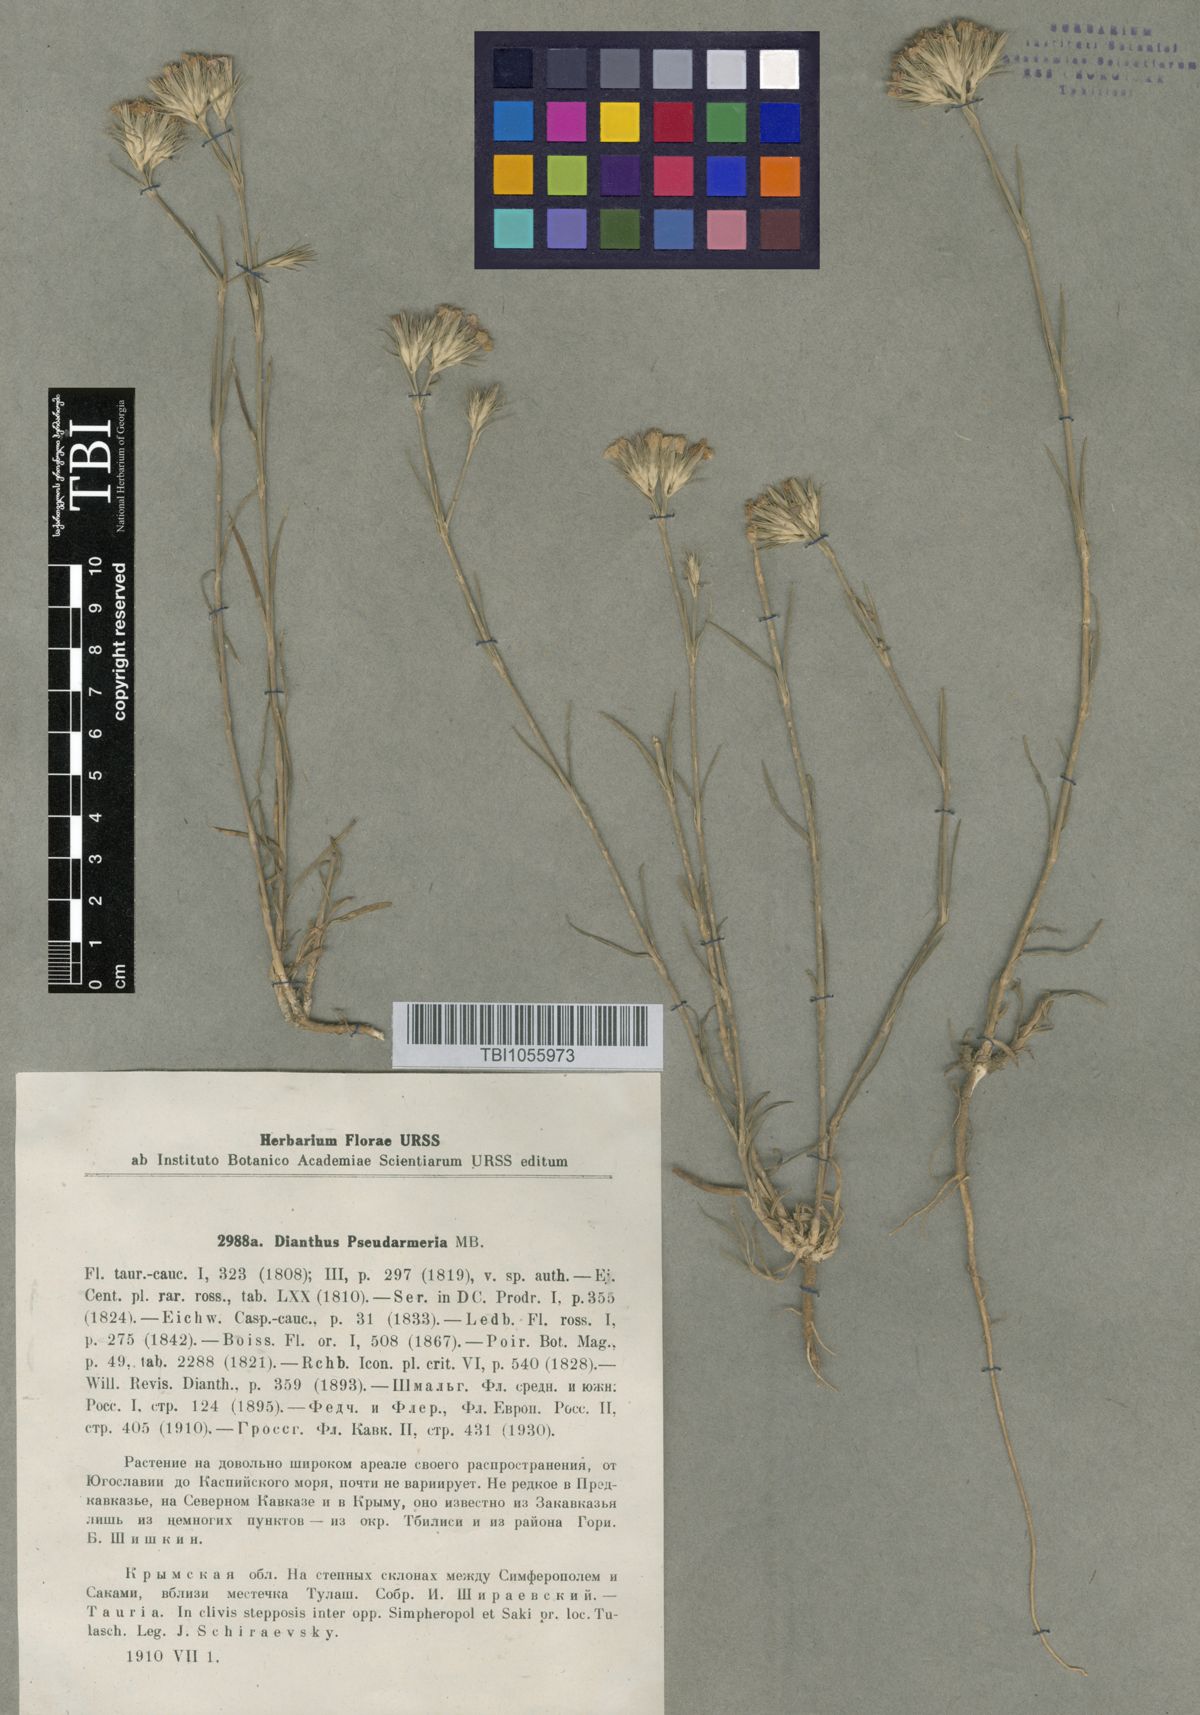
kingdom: Plantae
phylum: Tracheophyta
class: Magnoliopsida
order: Caryophyllales
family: Caryophyllaceae
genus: Dianthus
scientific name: Dianthus pseudarmeria
